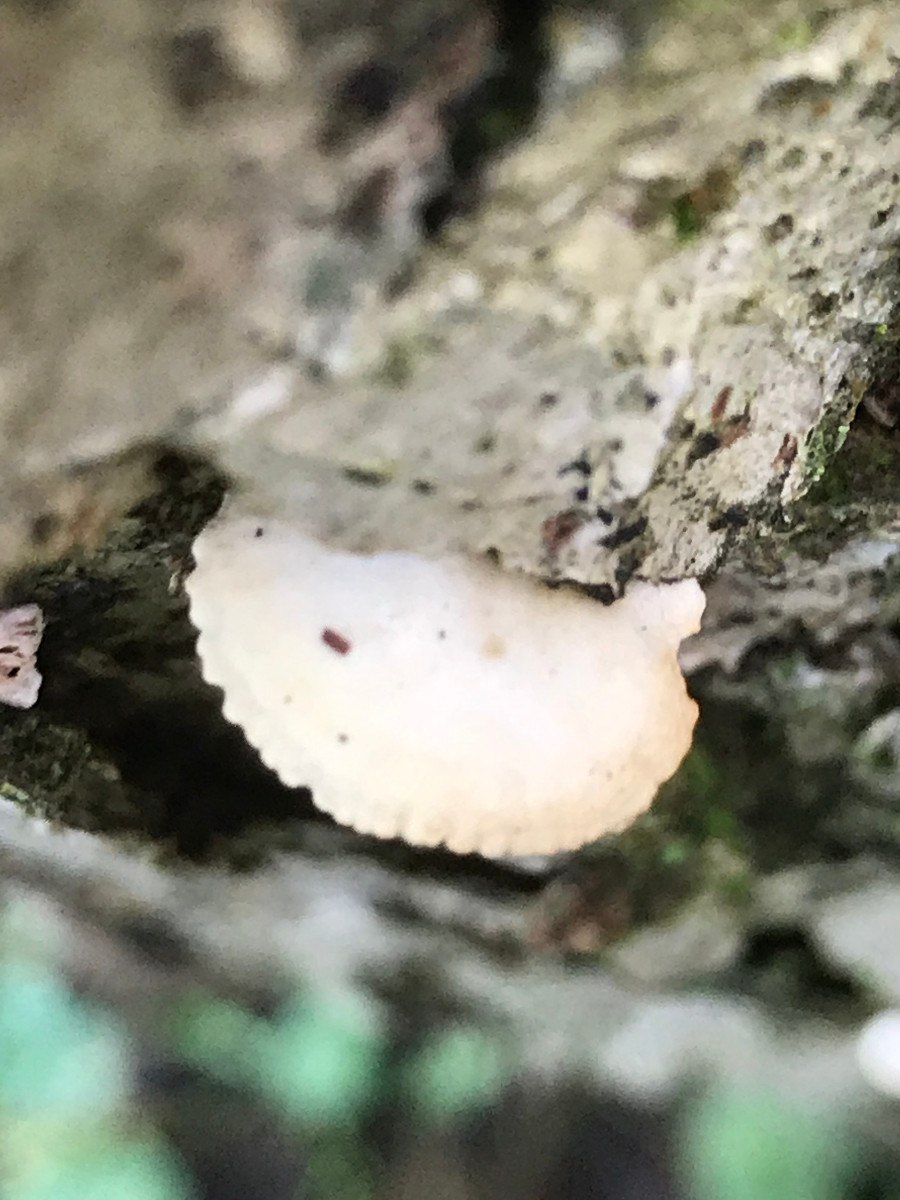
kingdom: Fungi
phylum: Basidiomycota
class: Agaricomycetes
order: Agaricales
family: Crepidotaceae
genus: Crepidotus
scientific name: Crepidotus
